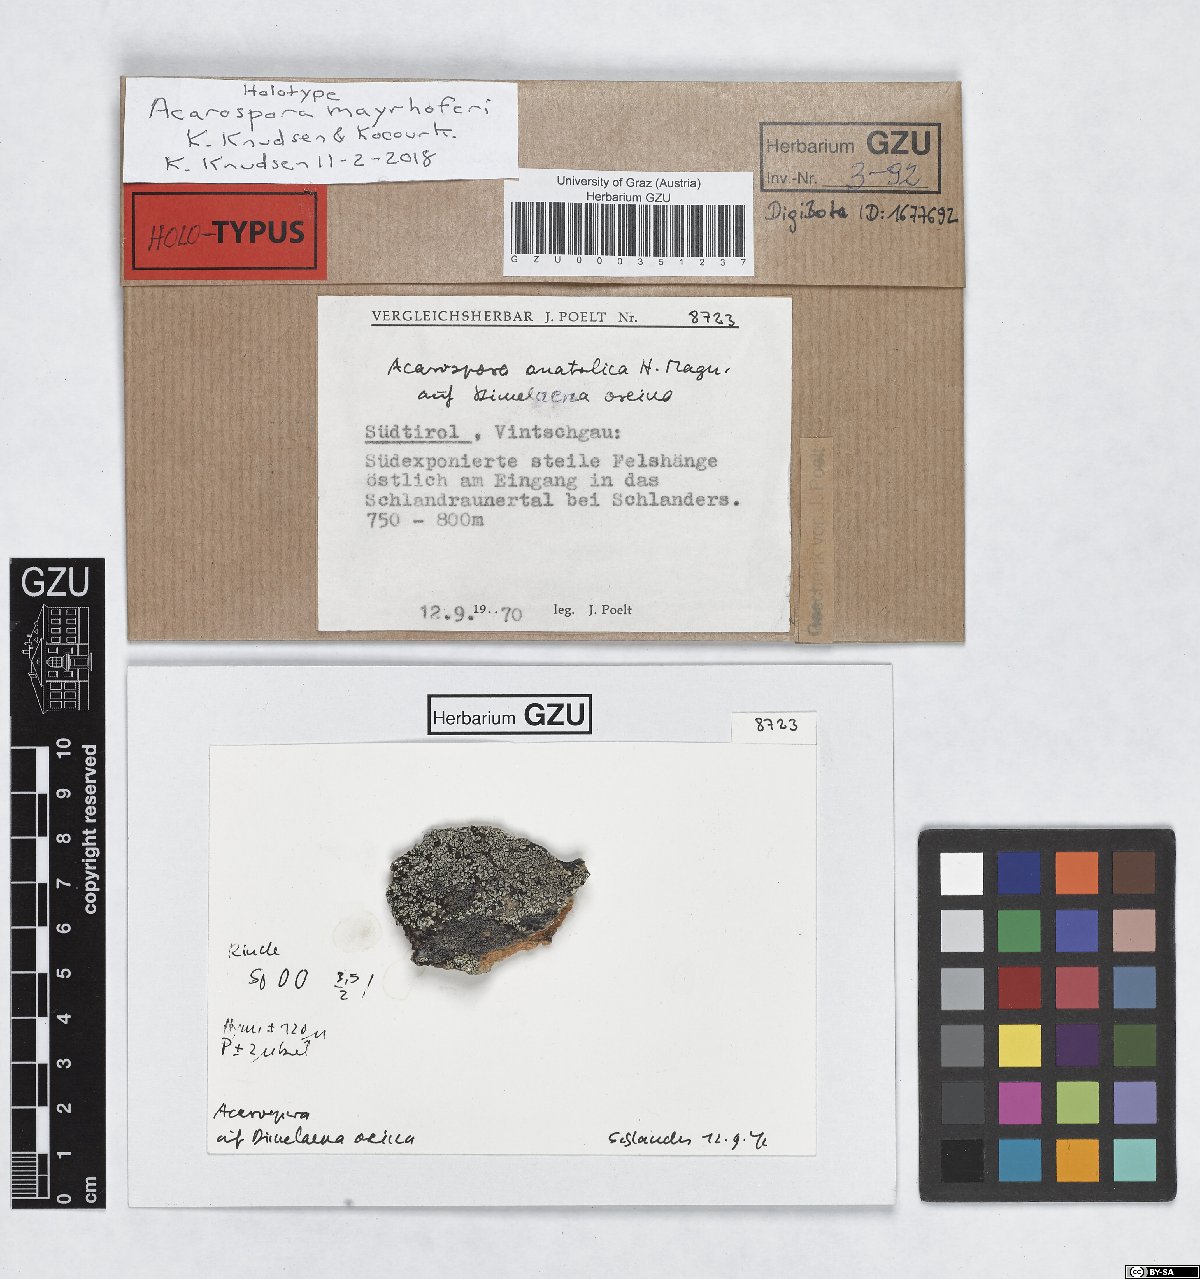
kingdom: Fungi
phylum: Ascomycota
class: Lecanoromycetes
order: Acarosporales
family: Acarosporaceae
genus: Acarospora
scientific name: Acarospora mayrhoferi
